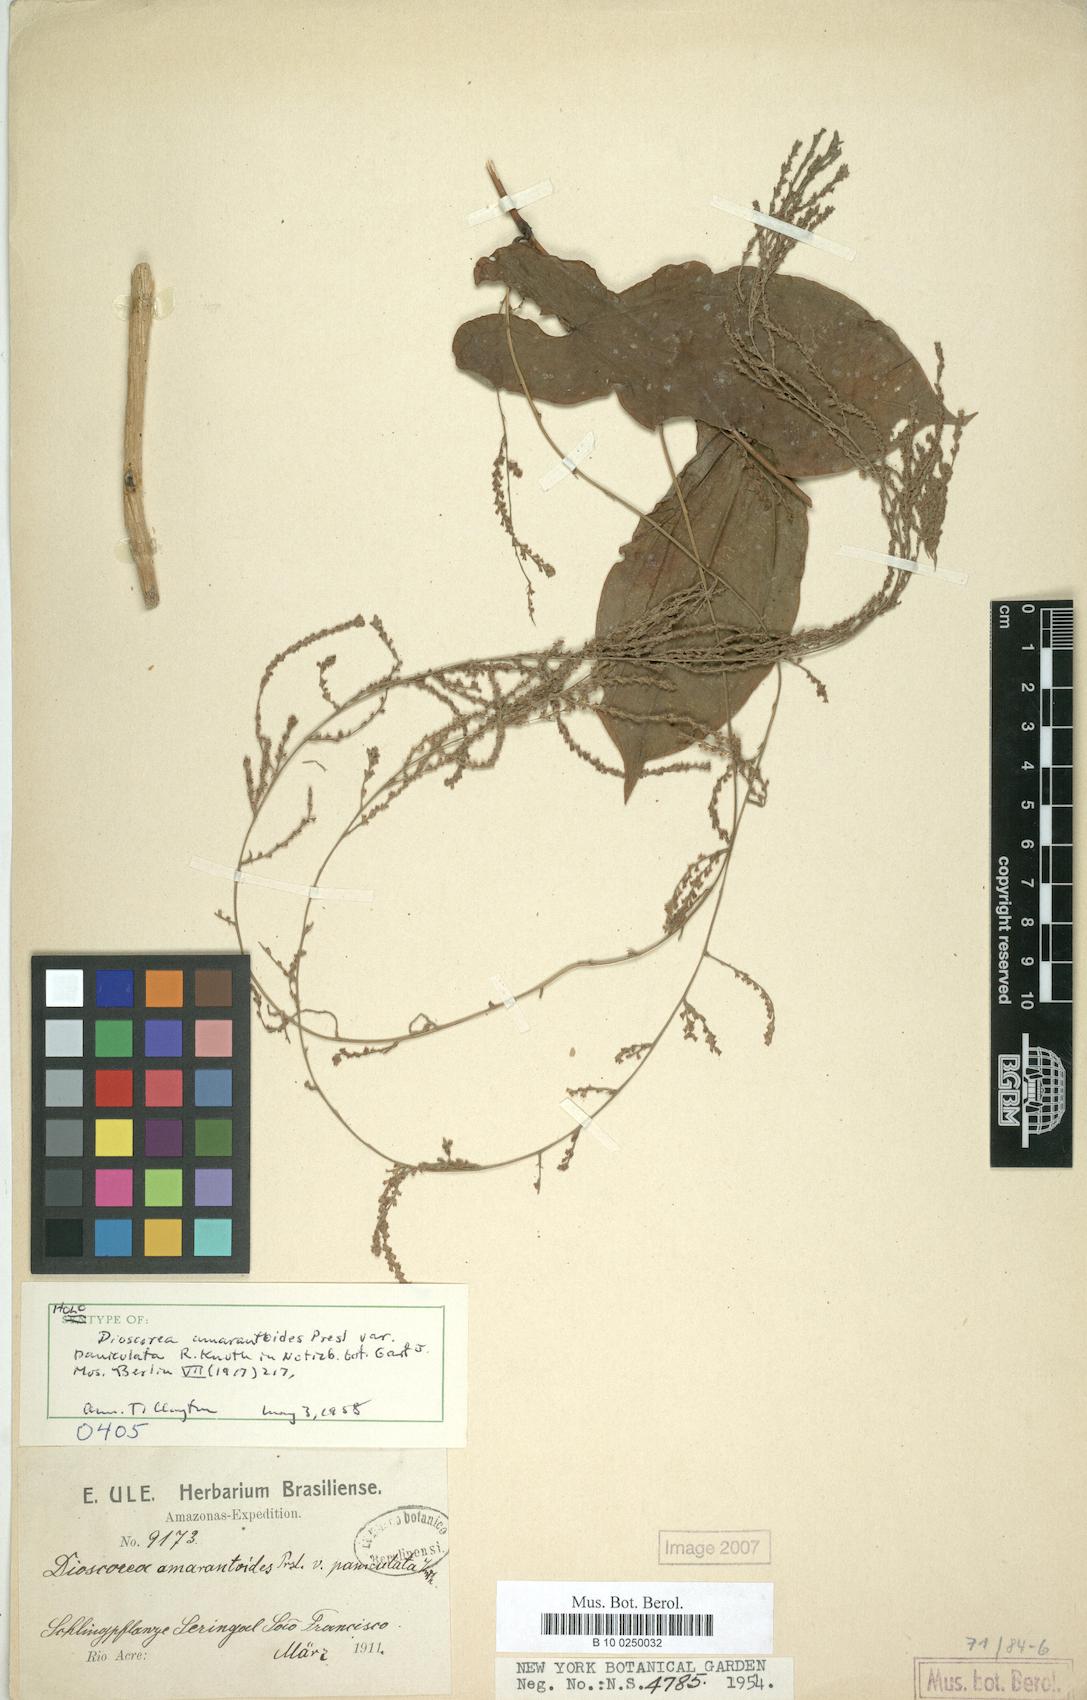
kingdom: Plantae
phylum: Tracheophyta
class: Liliopsida
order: Dioscoreales
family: Dioscoreaceae
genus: Dioscorea
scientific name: Dioscorea amaranthoides
